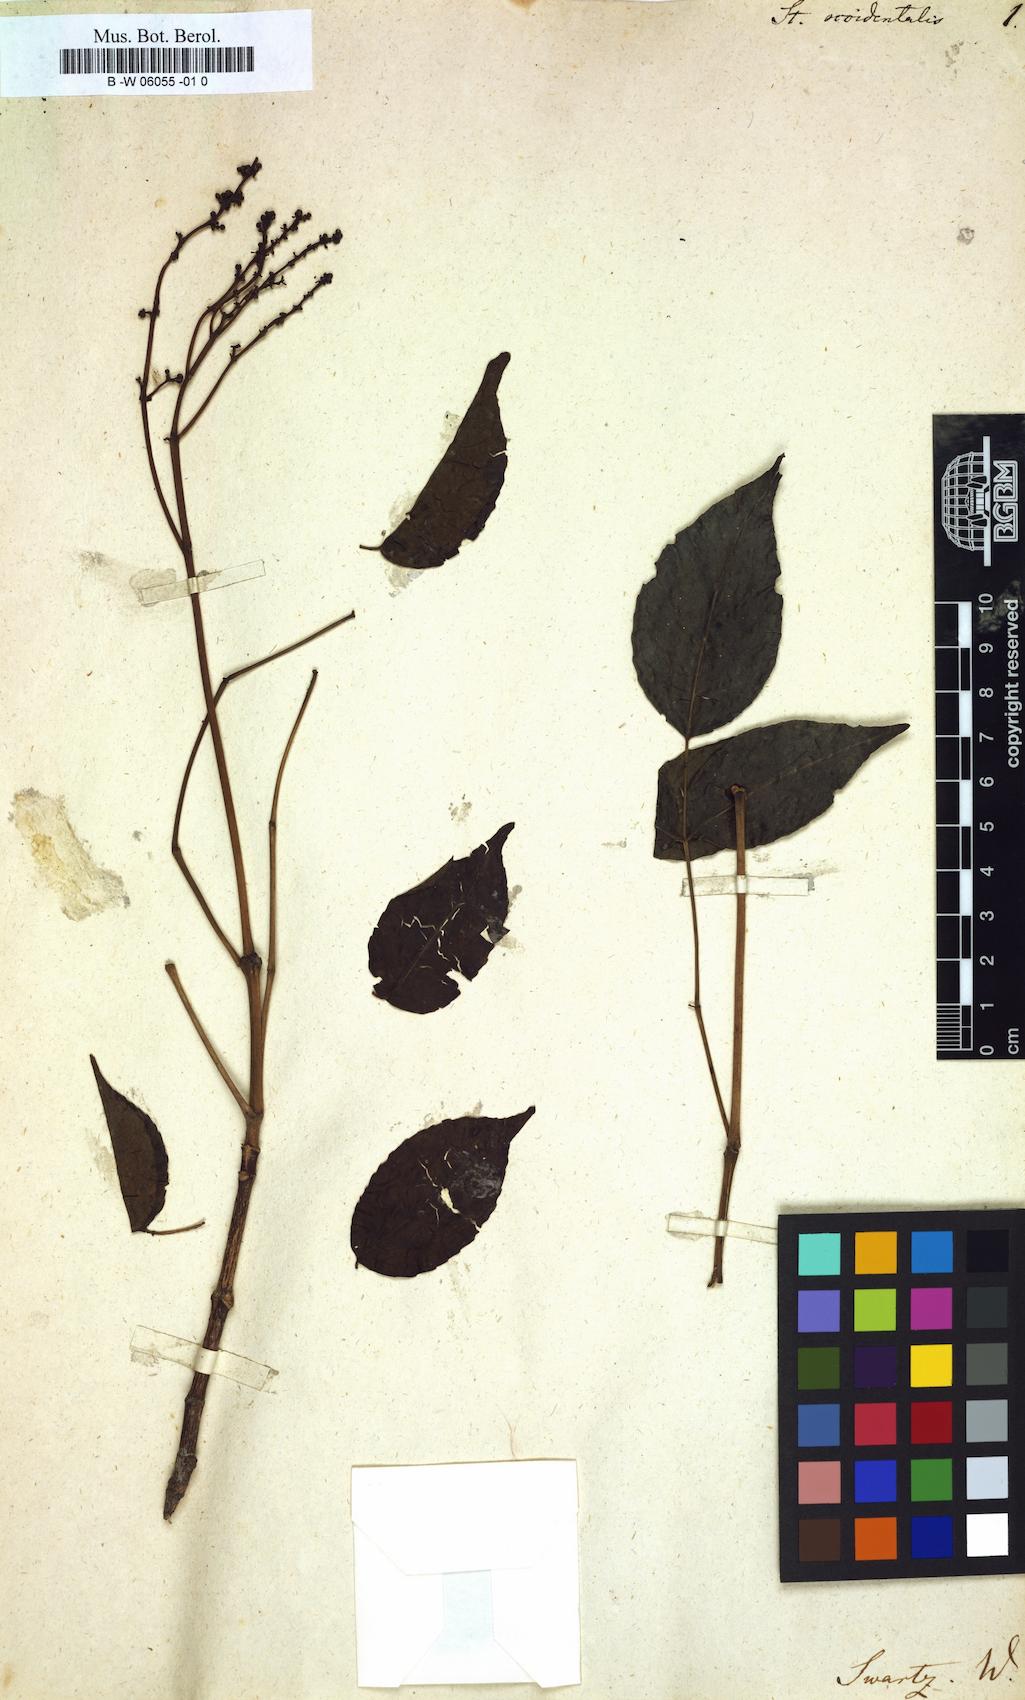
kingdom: Plantae
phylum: Tracheophyta
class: Magnoliopsida
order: Crossosomatales
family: Staphyleaceae
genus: Turpinia
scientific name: Turpinia occidentalis
